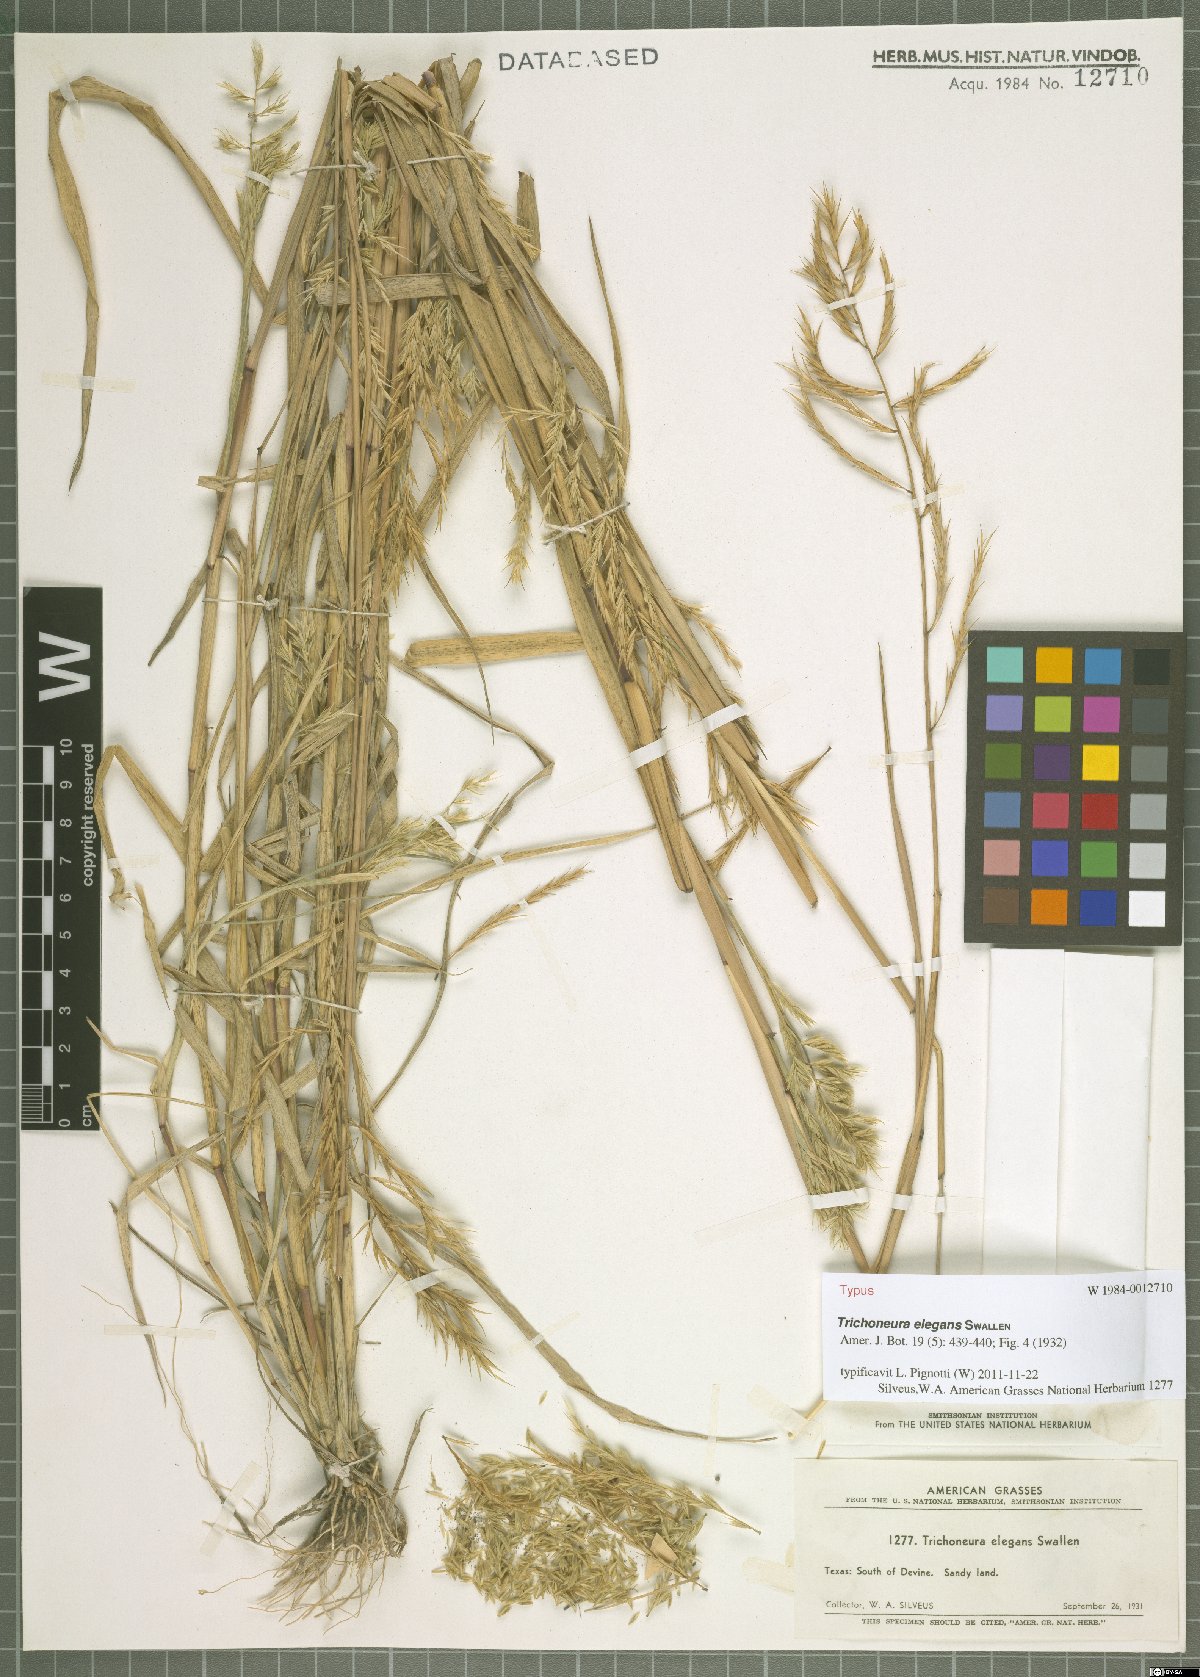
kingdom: Plantae
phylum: Tracheophyta
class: Liliopsida
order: Poales
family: Poaceae
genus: Trichoneura
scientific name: Trichoneura elegans
